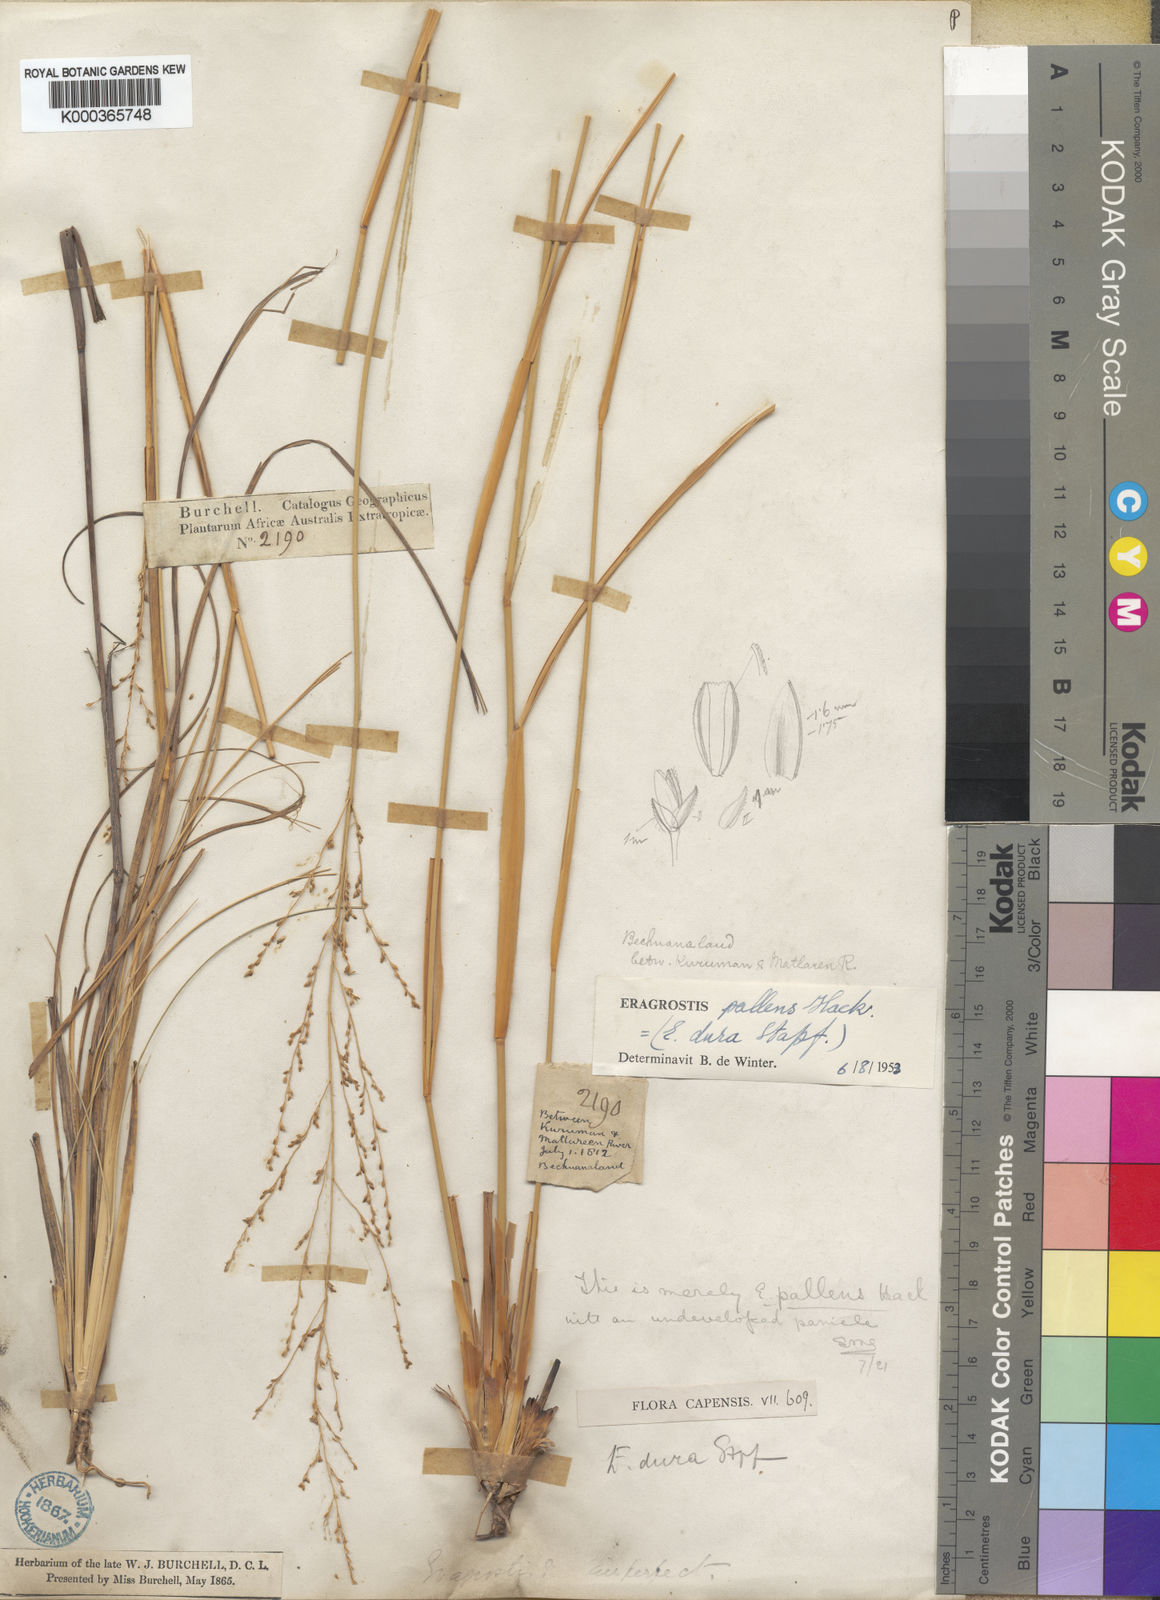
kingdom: Plantae
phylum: Tracheophyta
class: Liliopsida
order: Poales
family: Poaceae
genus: Eragrostis
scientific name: Eragrostis
